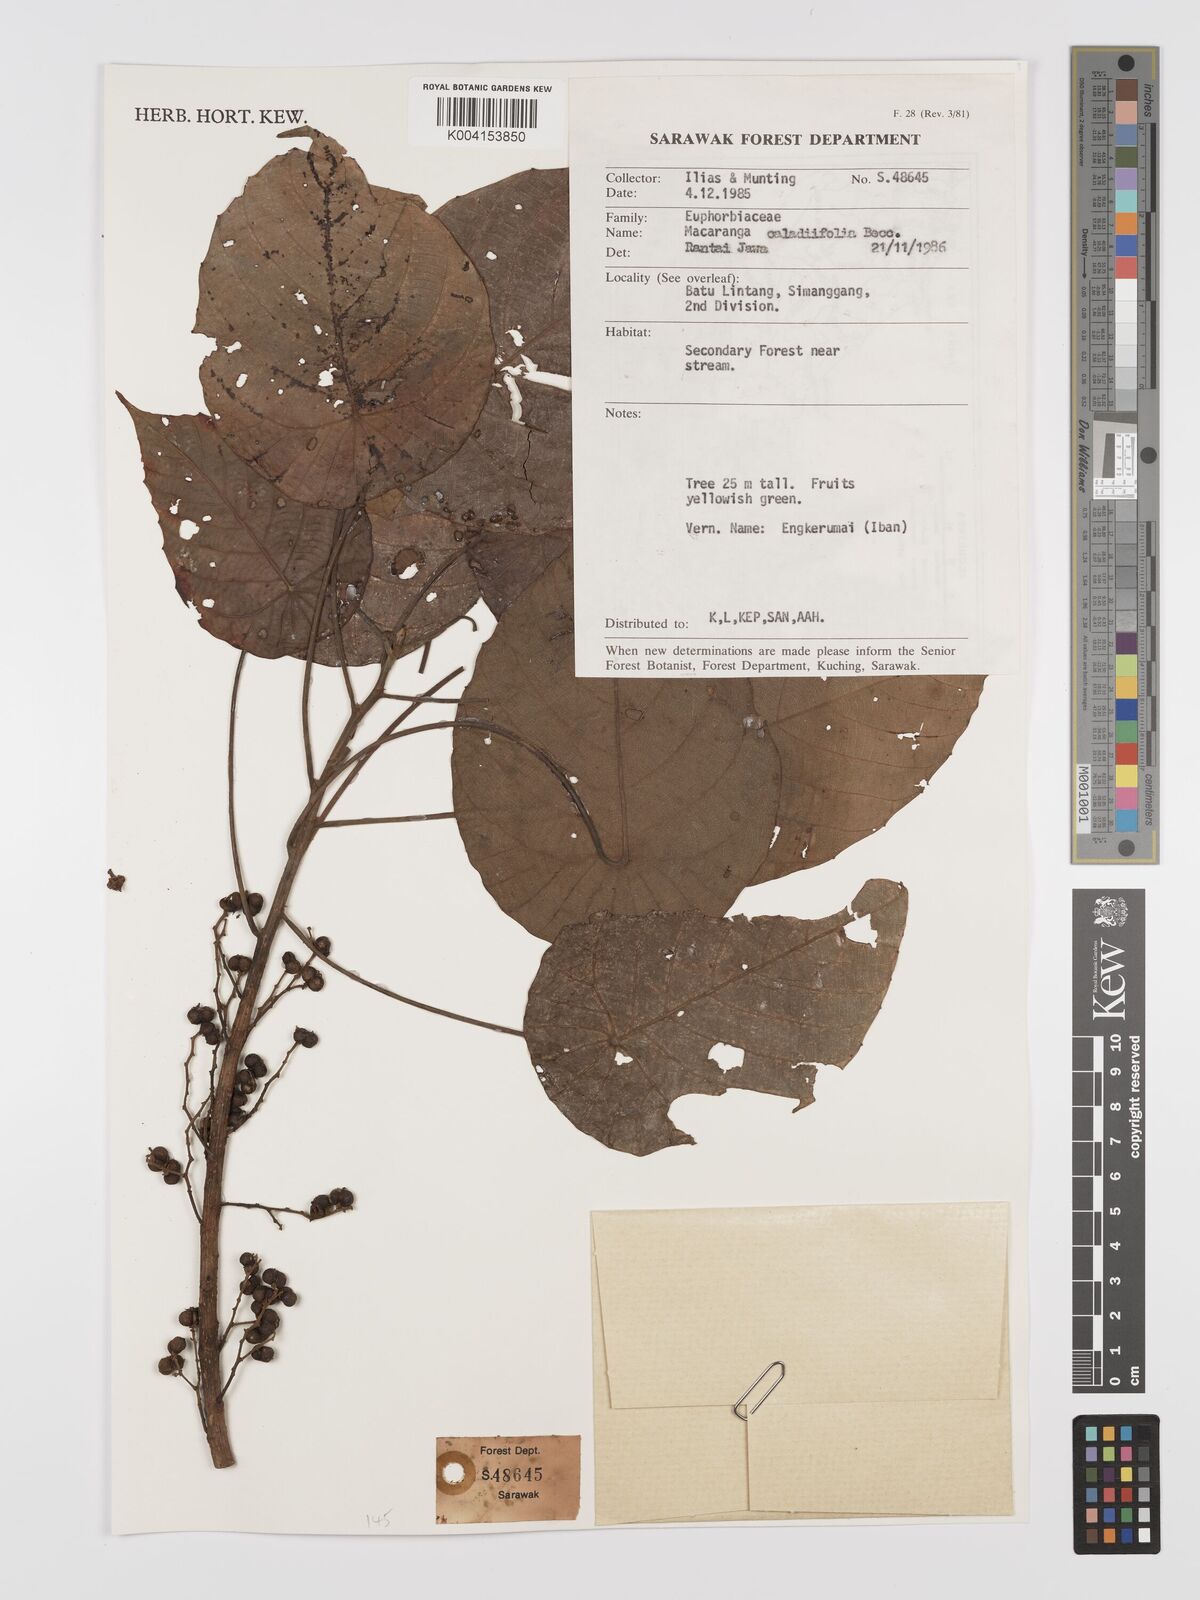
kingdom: Plantae
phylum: Tracheophyta
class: Magnoliopsida
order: Malpighiales
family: Euphorbiaceae
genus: Macaranga
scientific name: Macaranga caladiifolia
